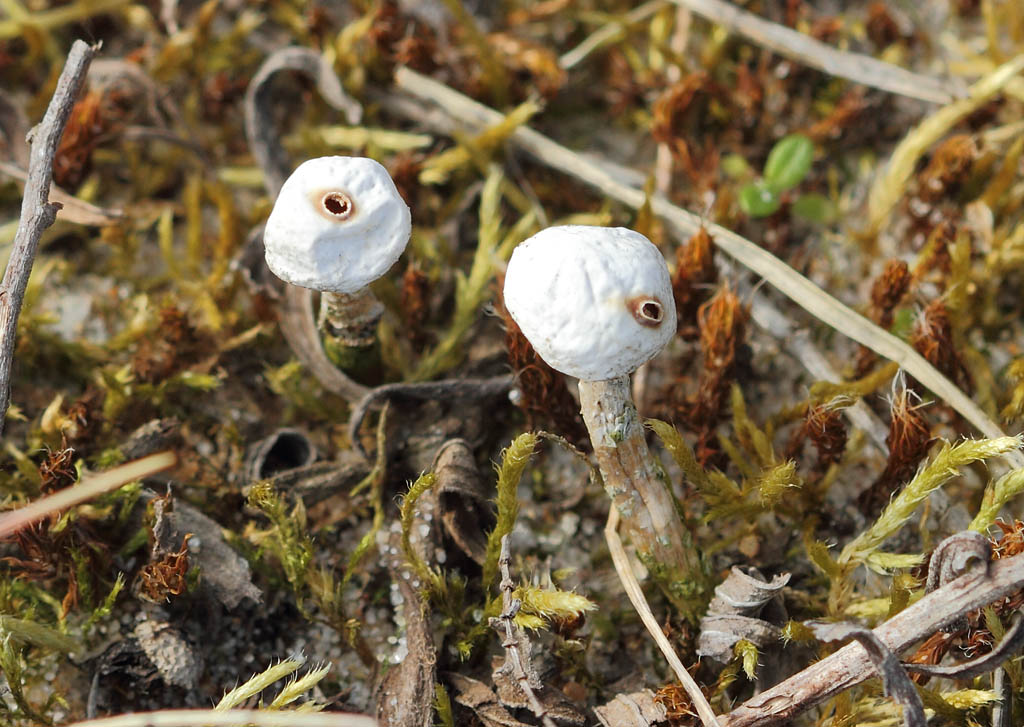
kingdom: Fungi
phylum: Basidiomycota
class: Agaricomycetes
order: Agaricales
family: Agaricaceae
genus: Tulostoma
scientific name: Tulostoma brumale
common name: vinter-stilkbovist
